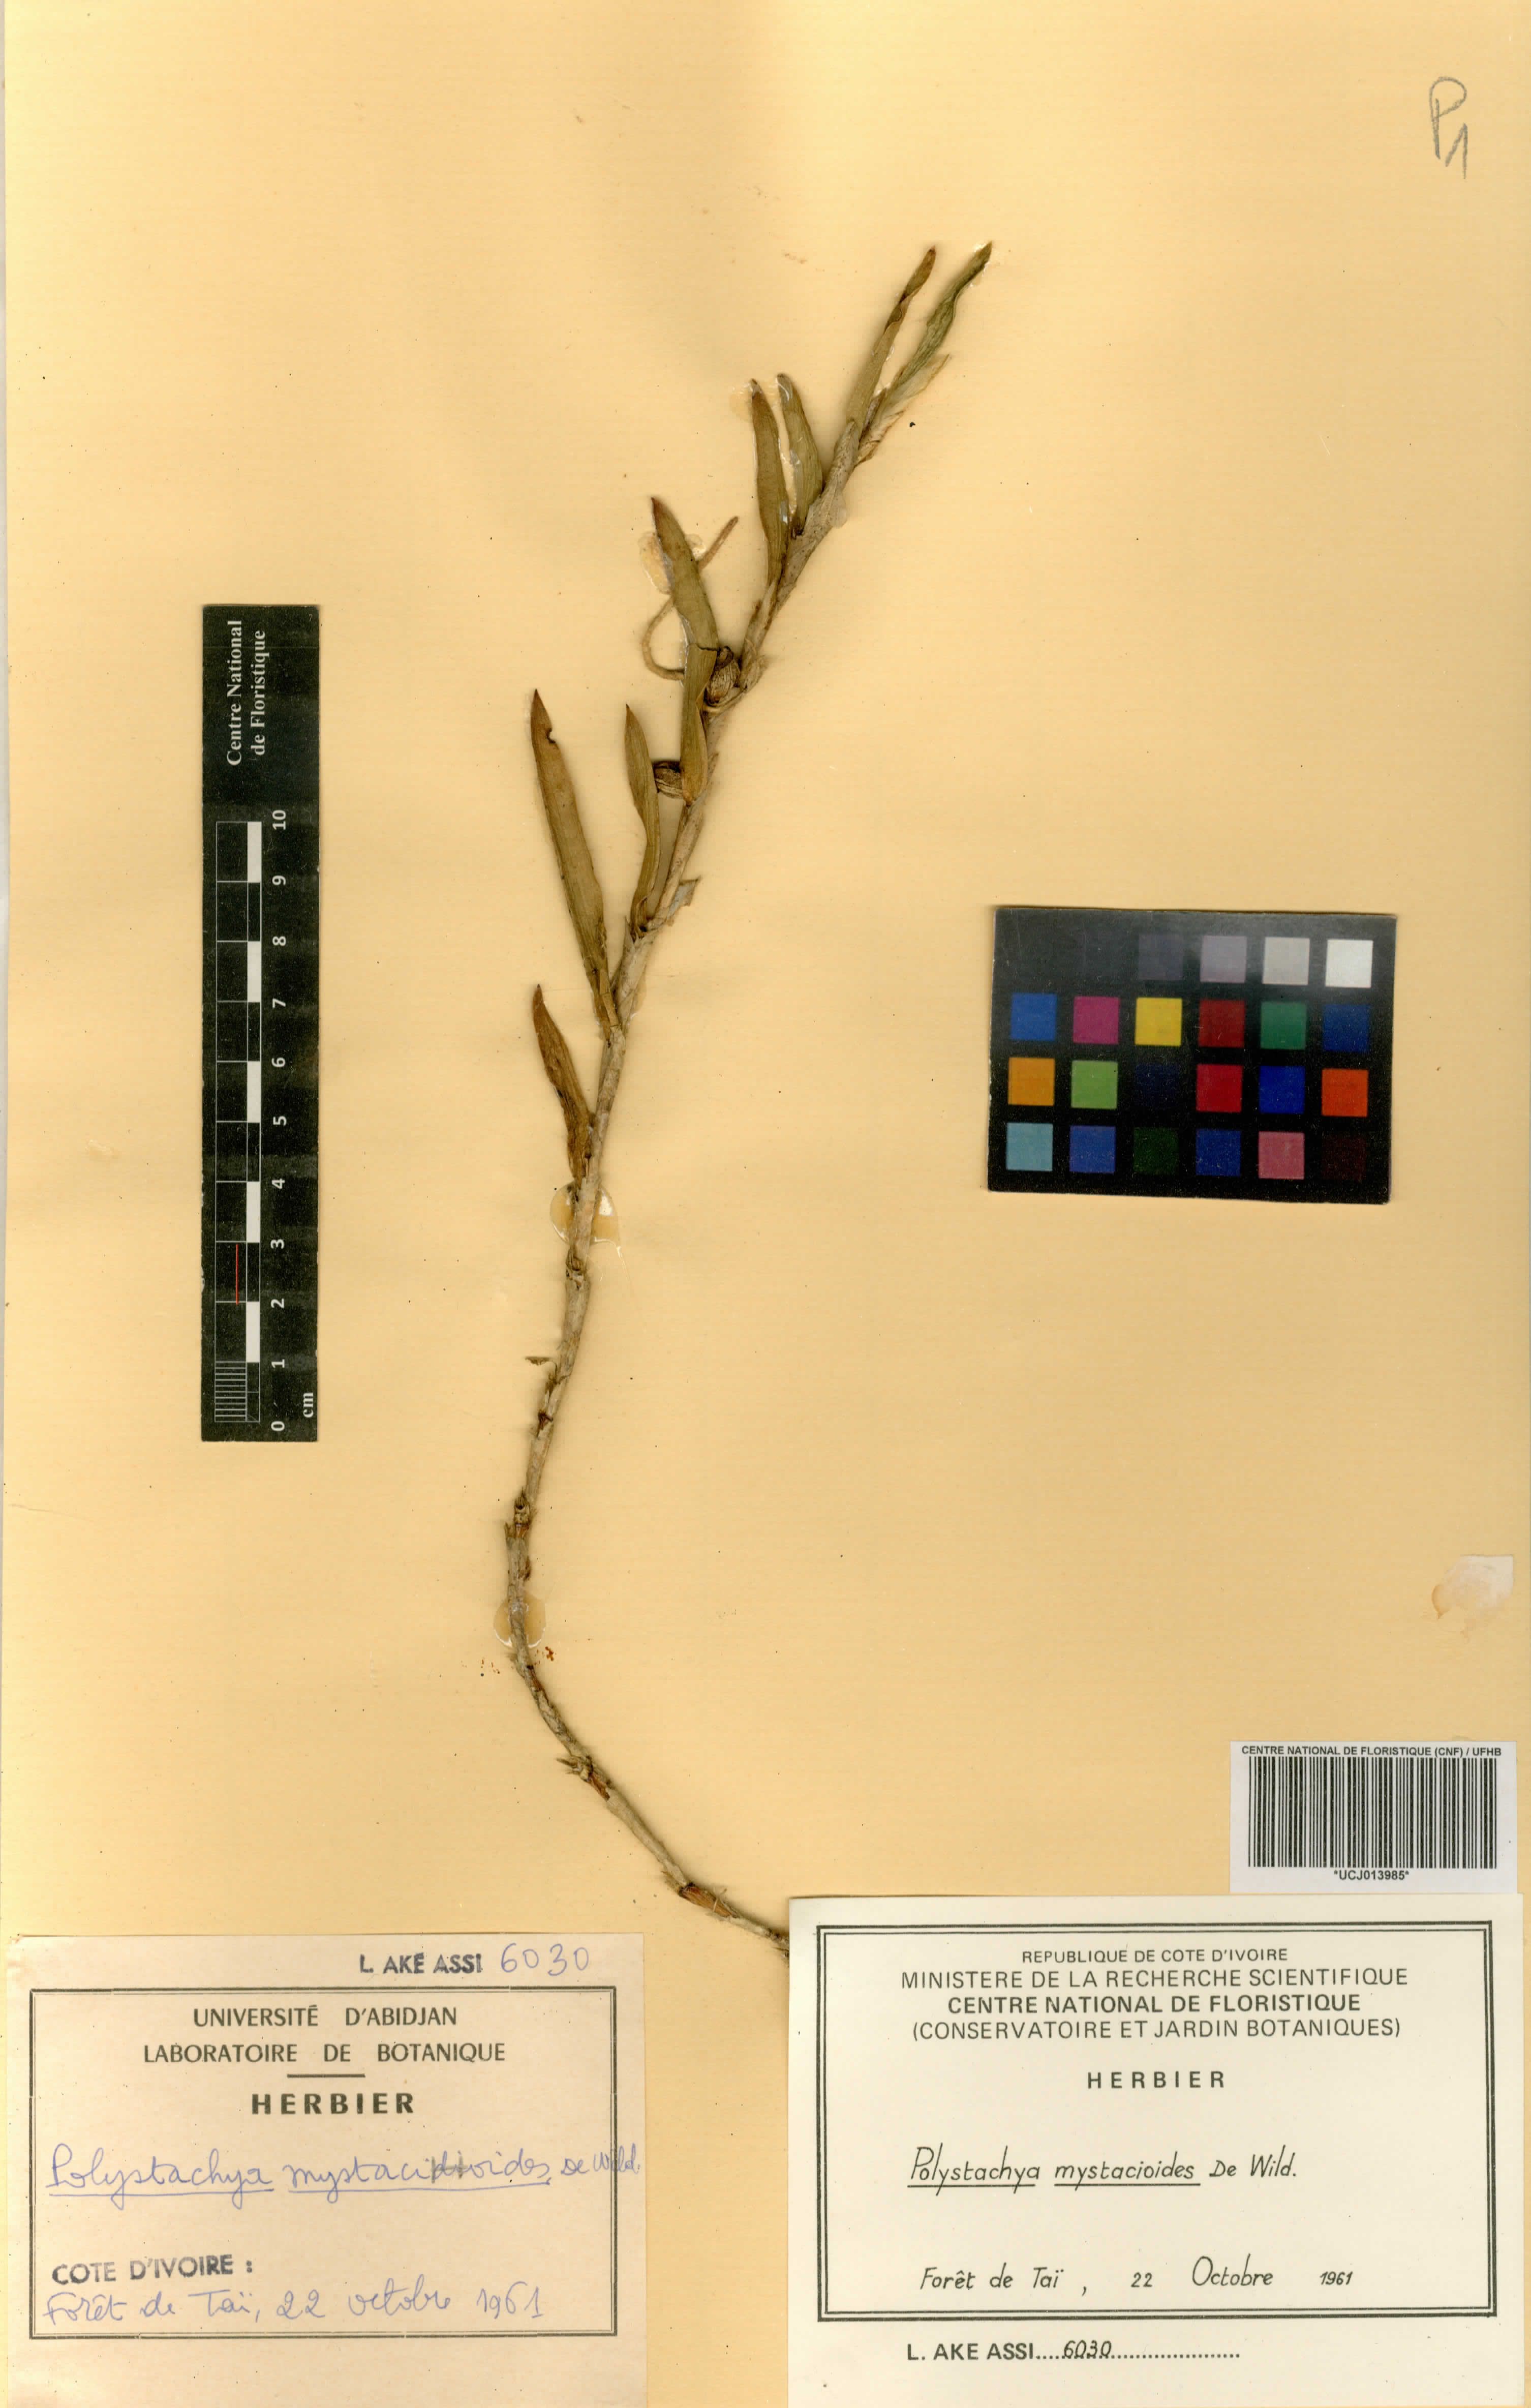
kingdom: Plantae
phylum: Tracheophyta
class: Liliopsida
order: Asparagales
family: Orchidaceae
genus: Polystachya
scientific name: Polystachya mystacioides
